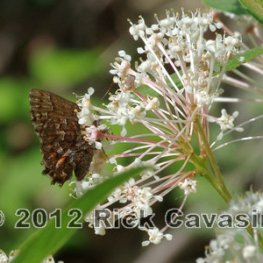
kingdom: Animalia
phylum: Arthropoda
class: Insecta
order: Lepidoptera
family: Lycaenidae
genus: Incisalia
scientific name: Incisalia niphon
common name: Eastern Pine Elfin
